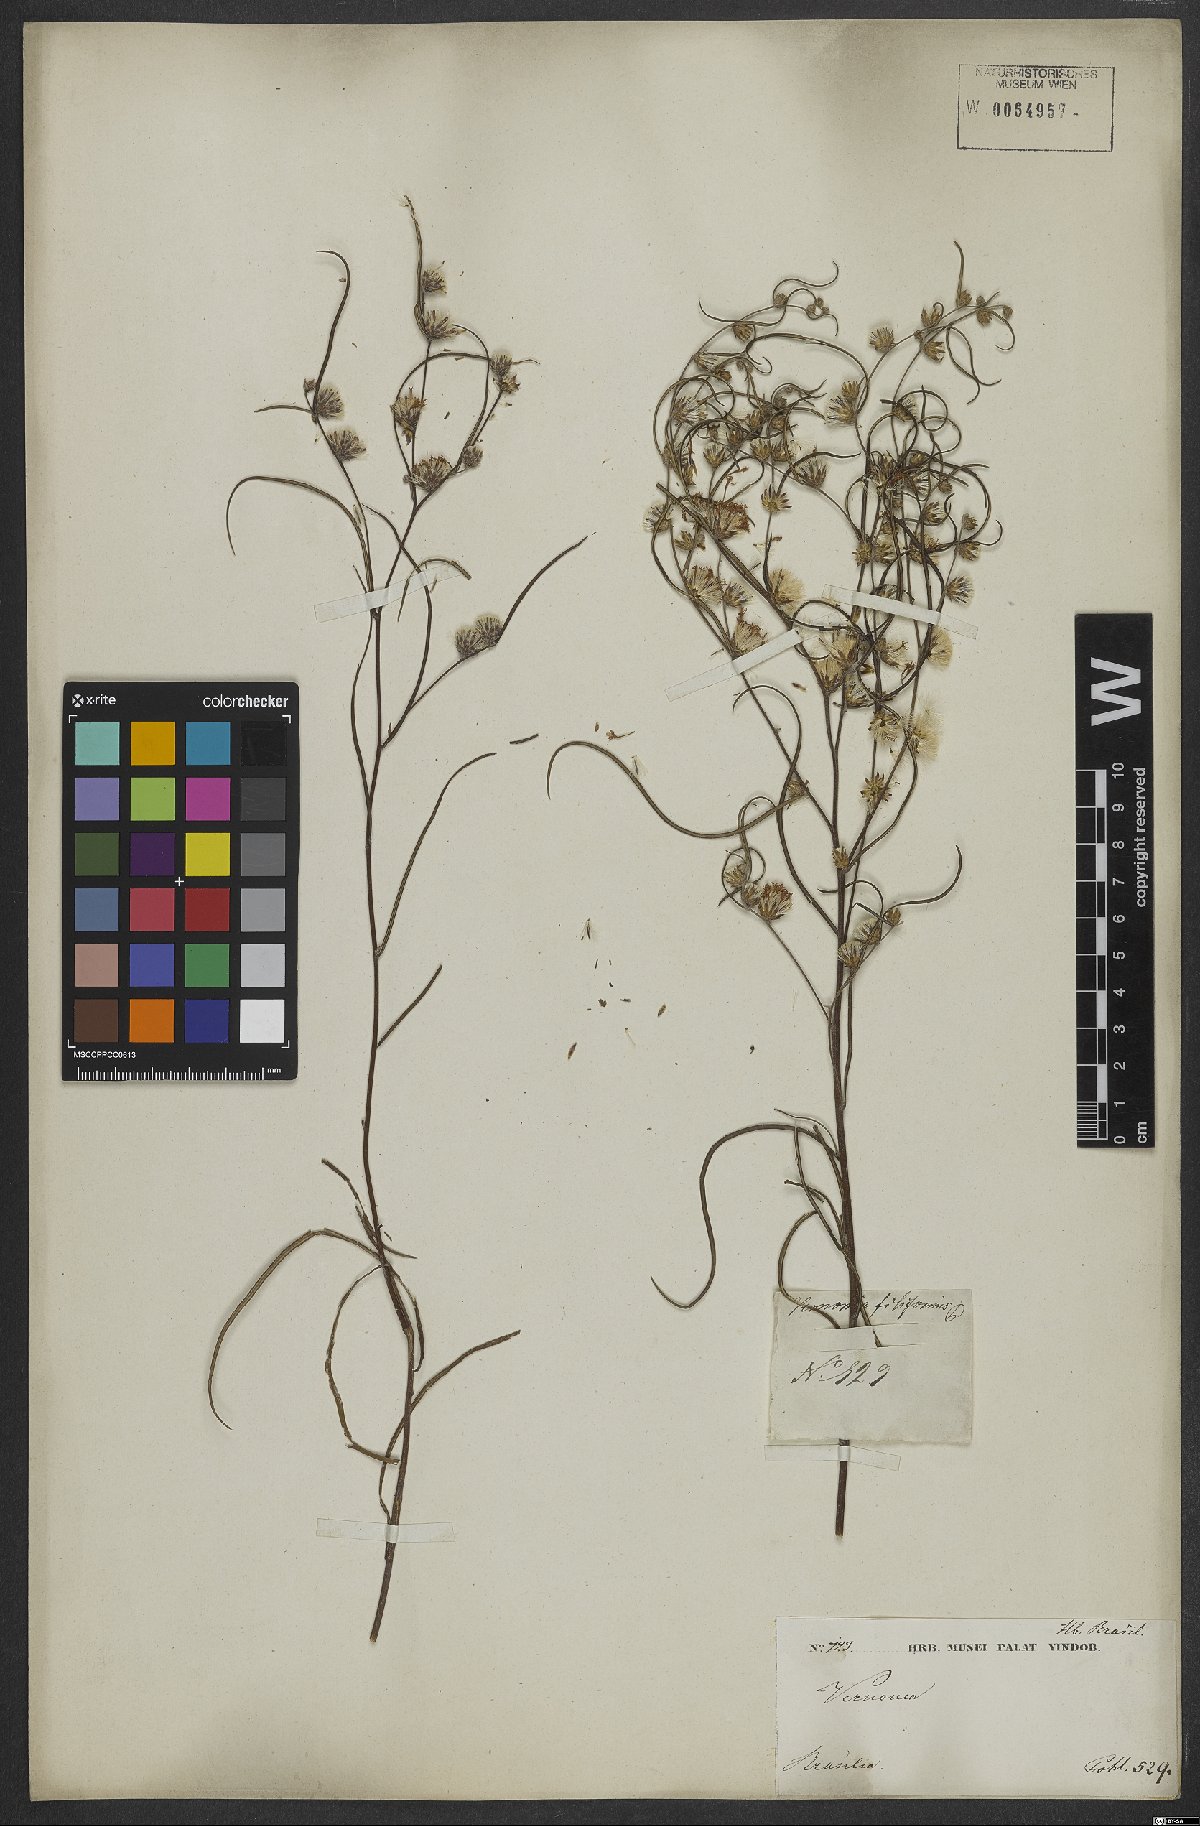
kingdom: Plantae
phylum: Tracheophyta
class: Magnoliopsida
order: Asterales
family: Asteraceae
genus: Lessingianthus
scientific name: Lessingianthus rubricaulis
